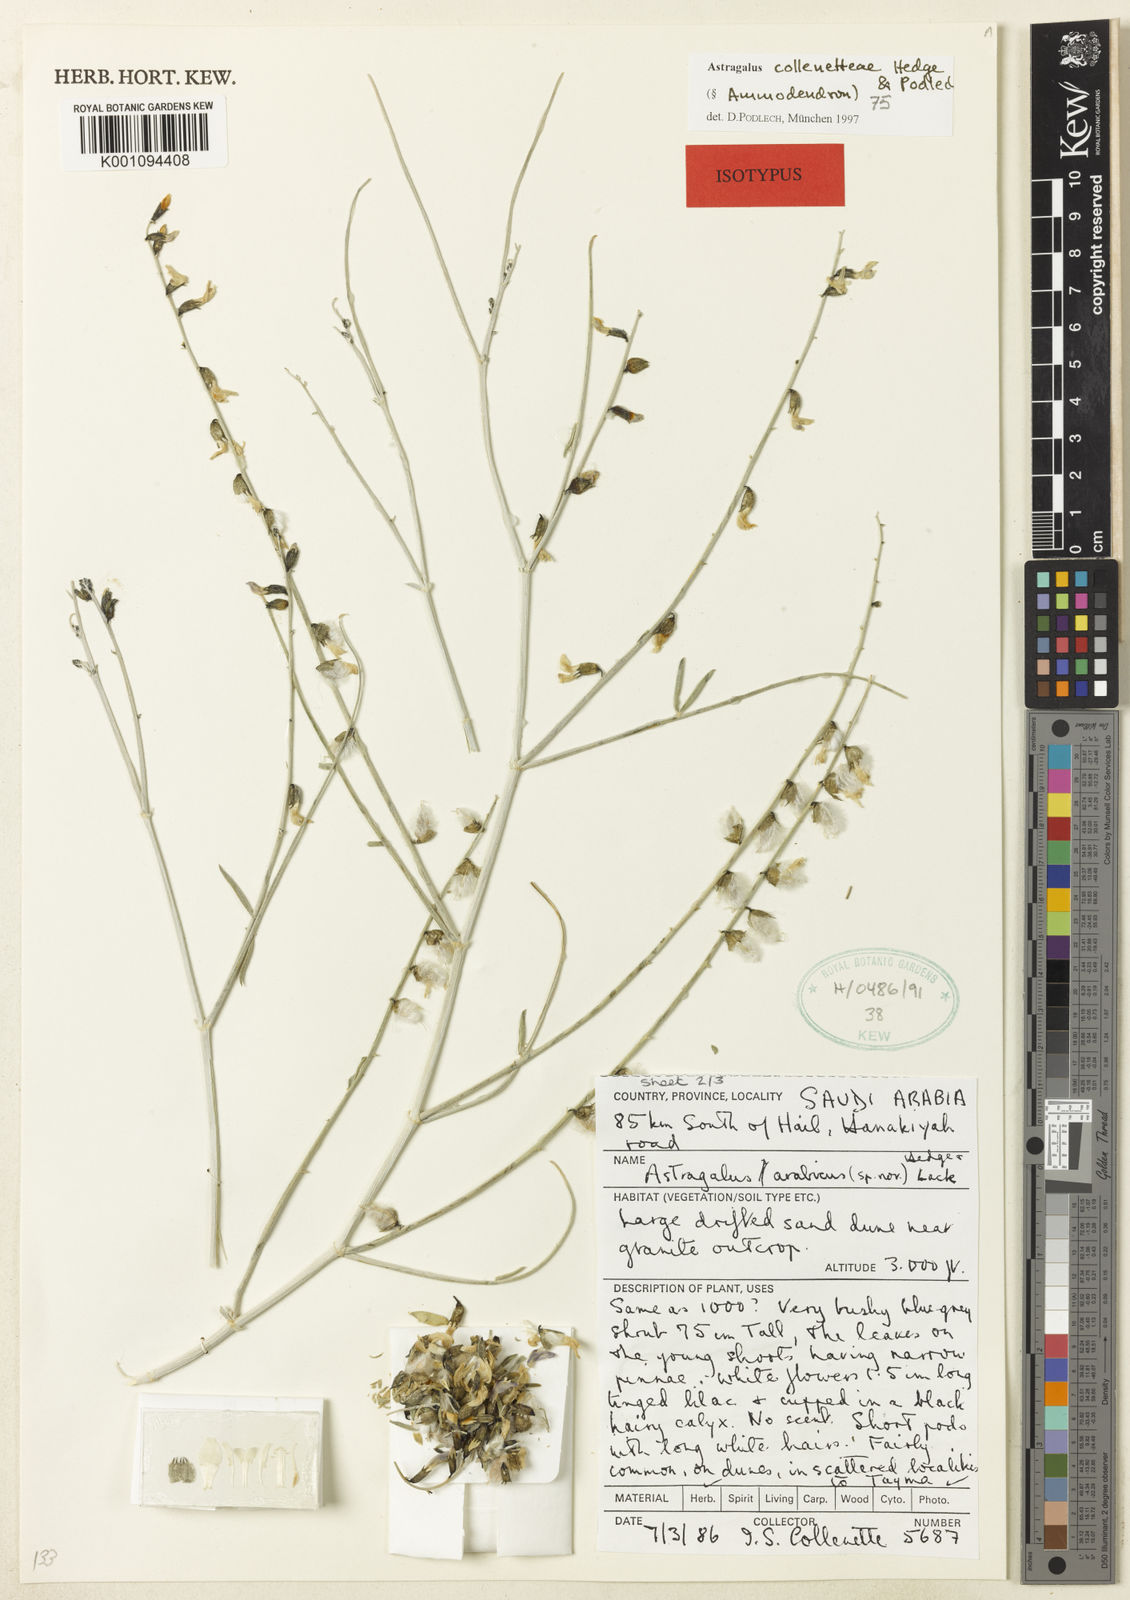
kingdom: Plantae
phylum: Tracheophyta
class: Magnoliopsida
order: Fabales
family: Fabaceae
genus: Astragalus
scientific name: Astragalus
